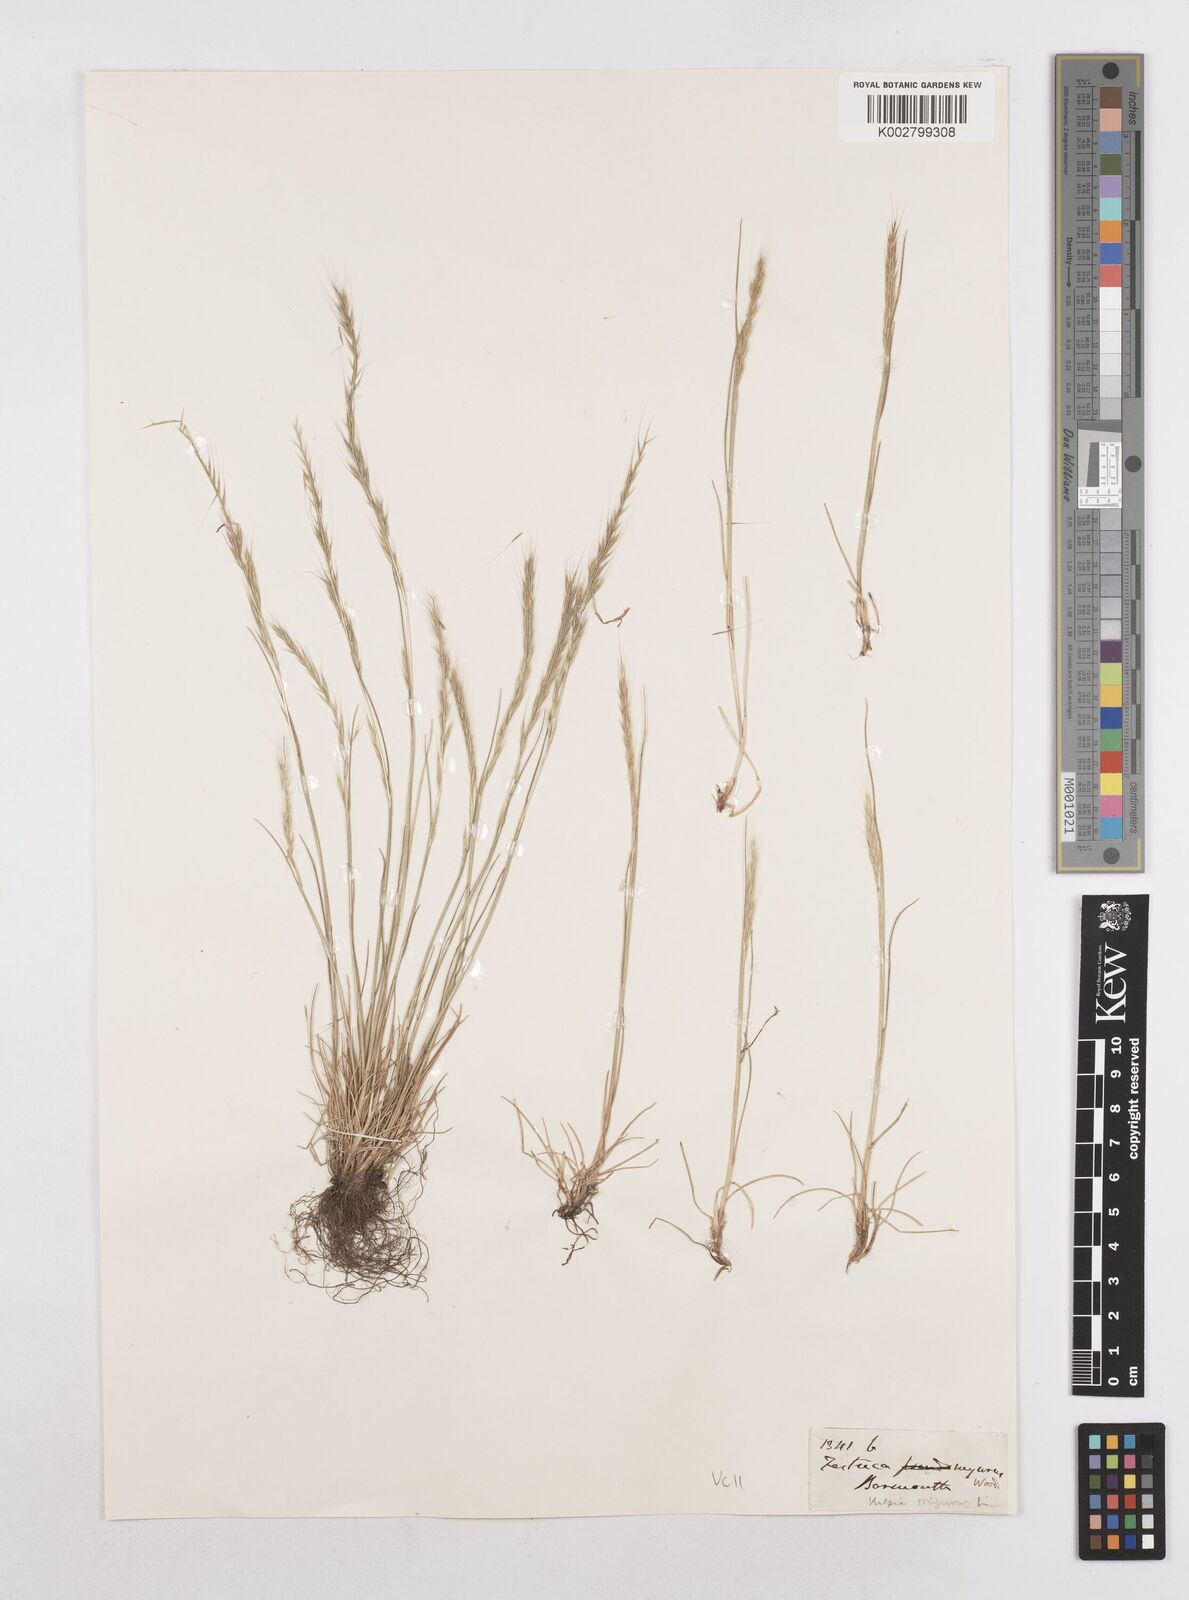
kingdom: Plantae
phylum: Tracheophyta
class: Liliopsida
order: Poales
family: Poaceae
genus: Festuca
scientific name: Festuca myuros
